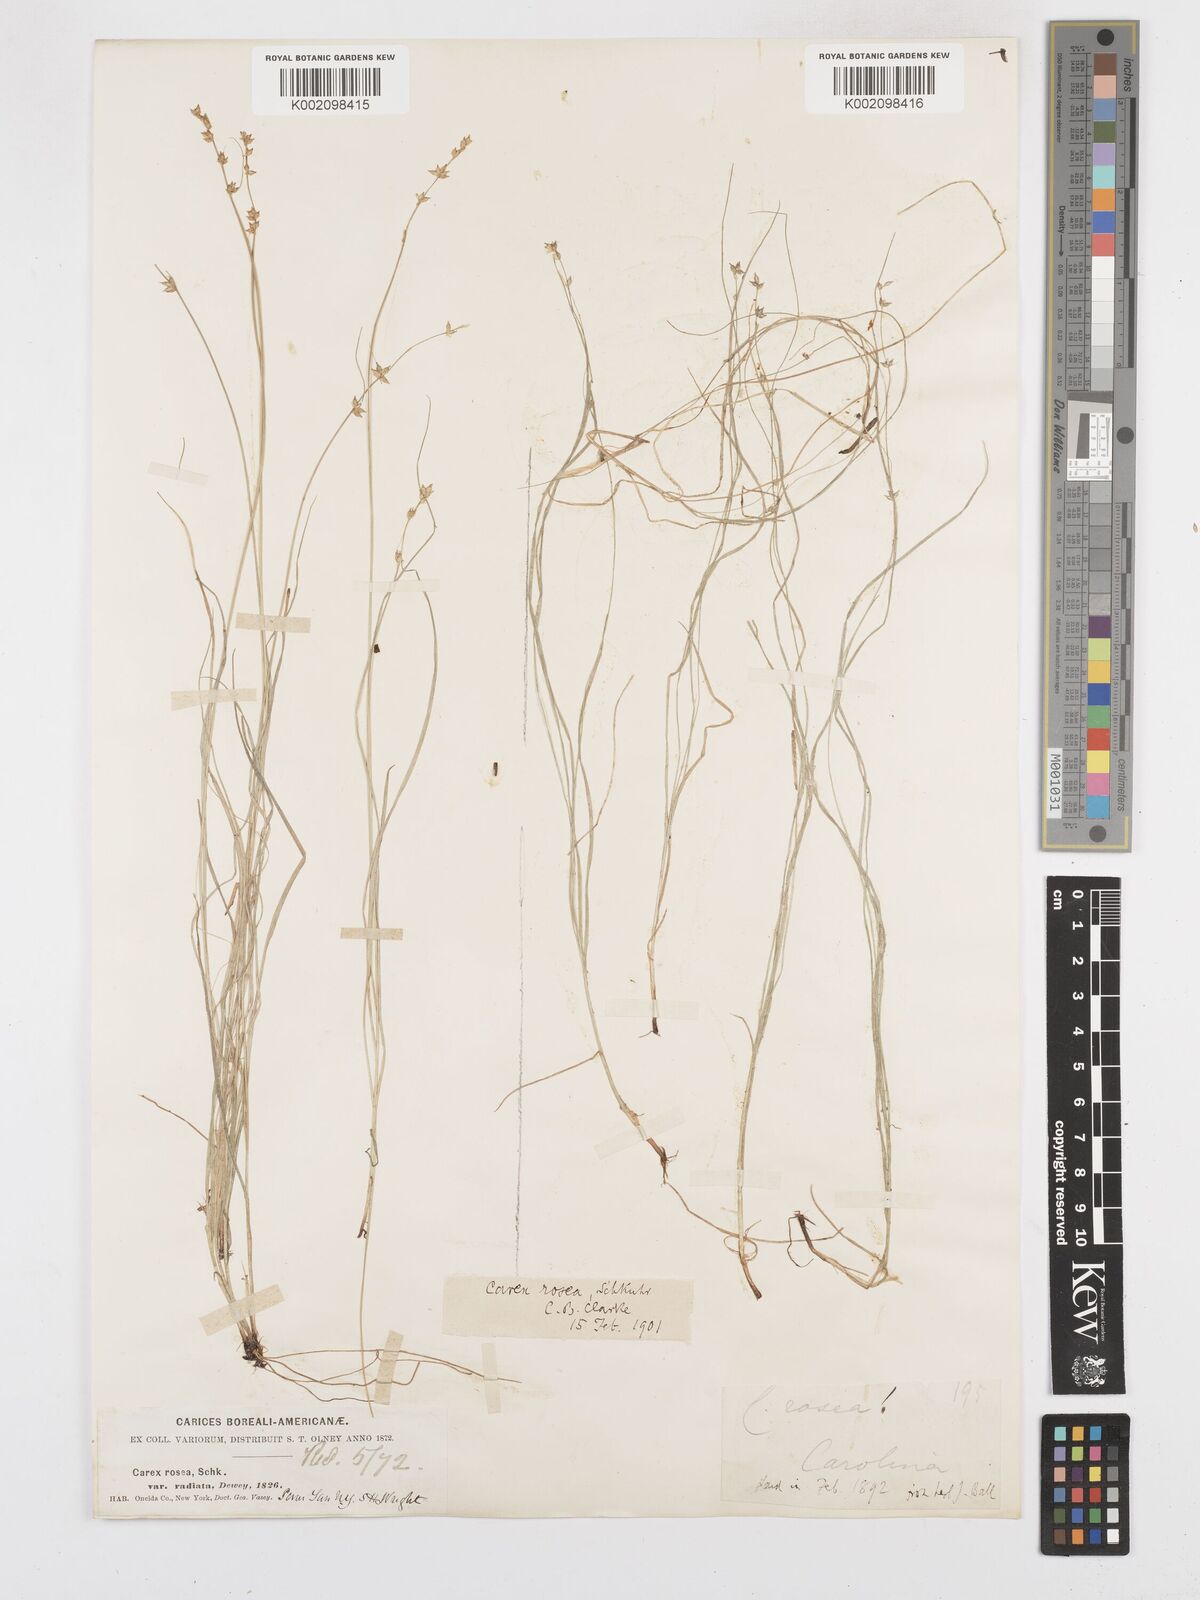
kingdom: Plantae
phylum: Tracheophyta
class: Liliopsida
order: Poales
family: Cyperaceae
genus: Carex
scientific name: Carex
